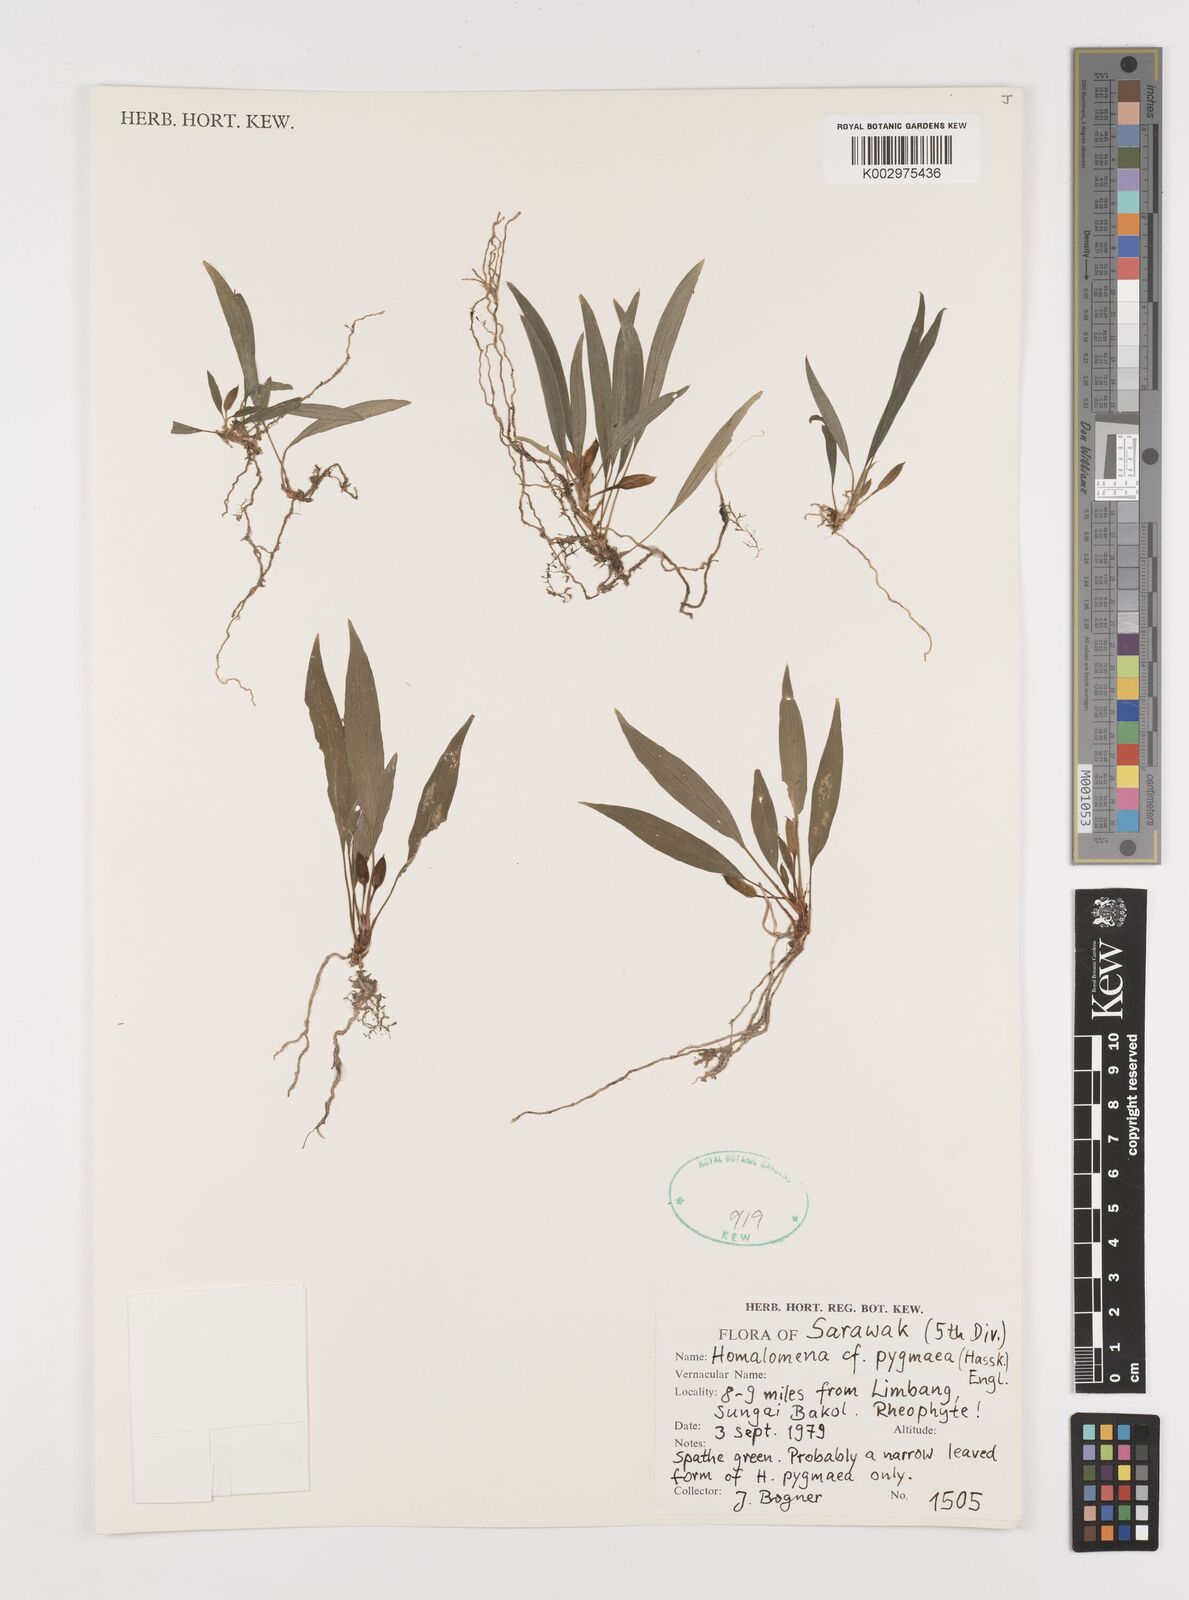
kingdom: Plantae
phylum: Tracheophyta
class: Liliopsida
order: Alismatales
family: Araceae
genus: Homalomena
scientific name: Homalomena humilis
